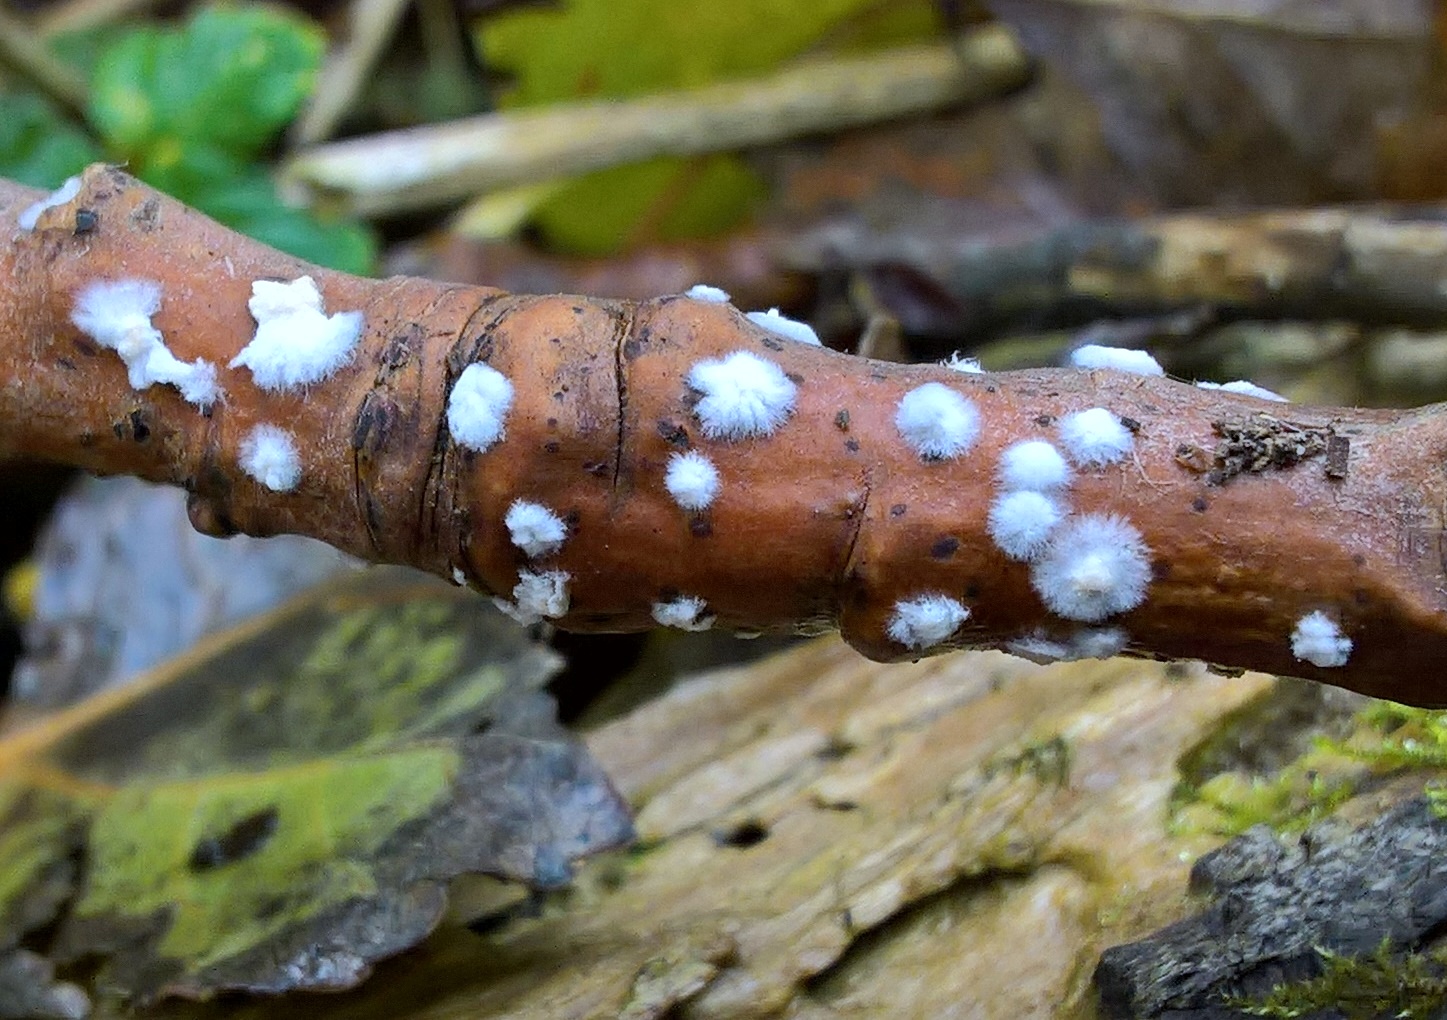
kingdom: Fungi
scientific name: Fungi
